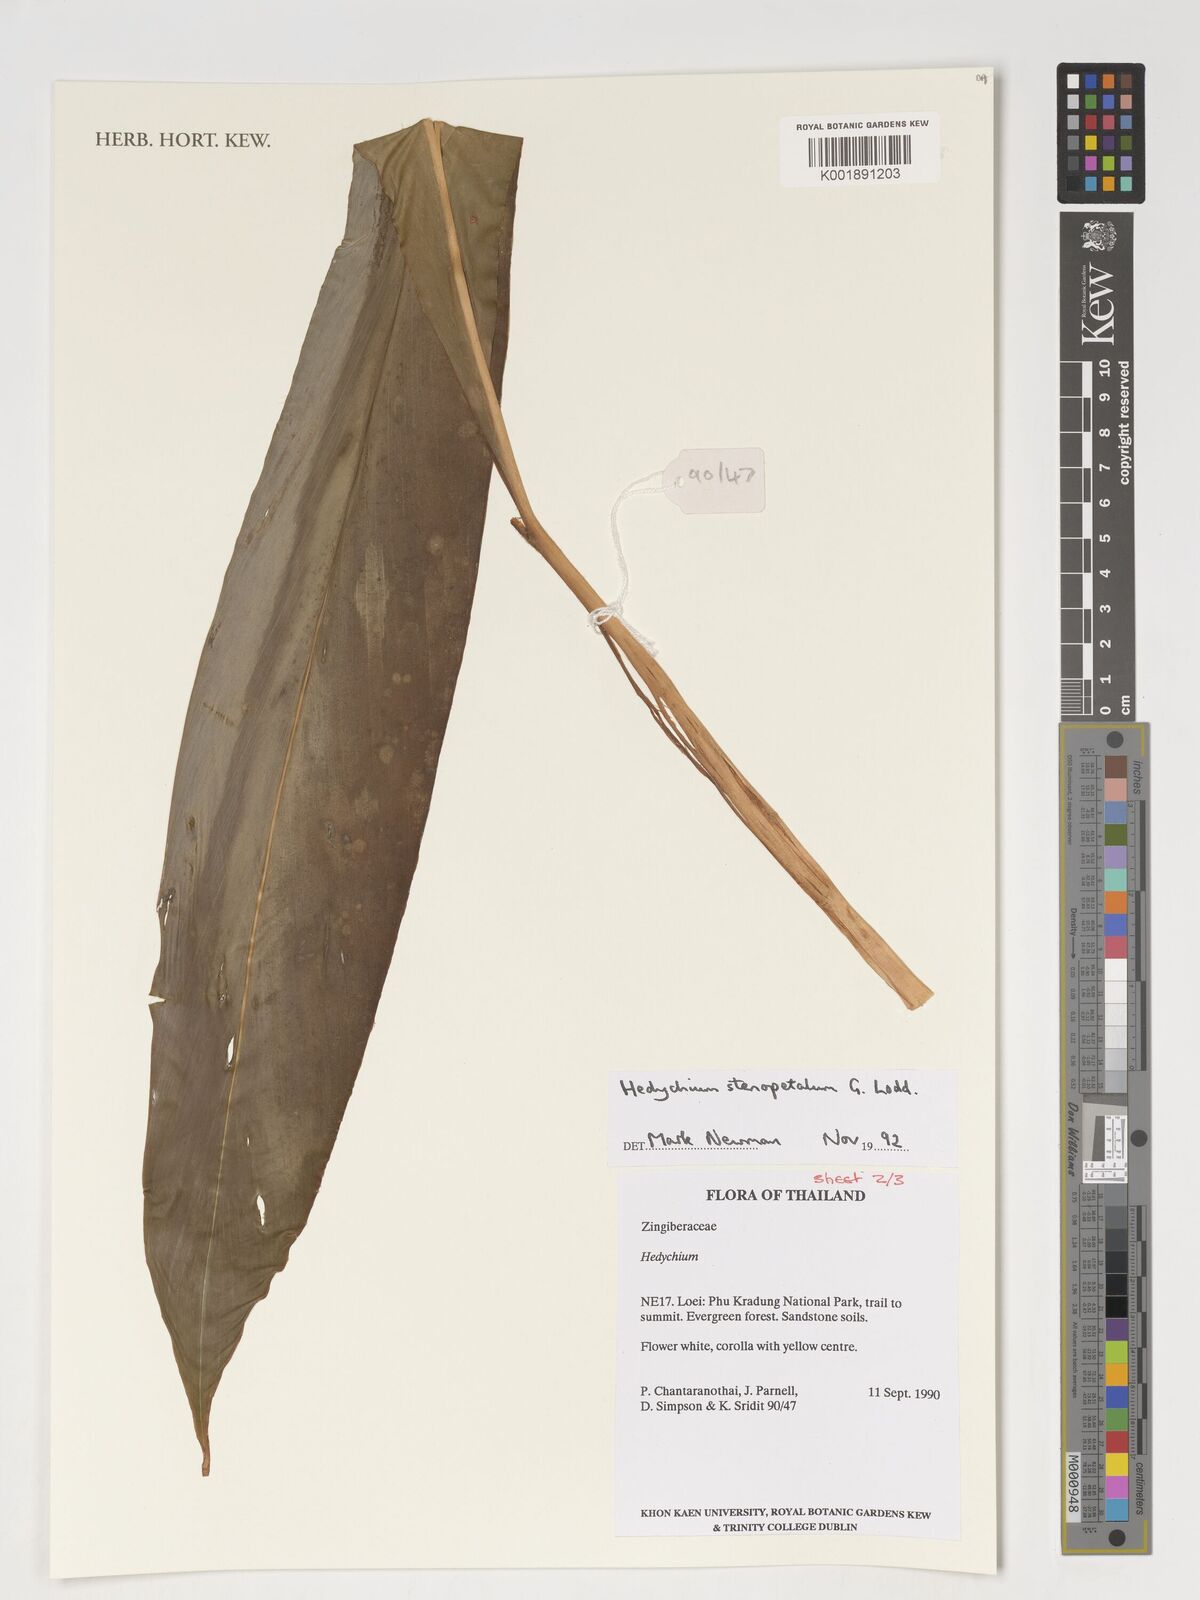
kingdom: Plantae
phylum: Tracheophyta
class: Liliopsida
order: Zingiberales
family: Zingiberaceae
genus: Hedychium
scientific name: Hedychium stenopetalum
